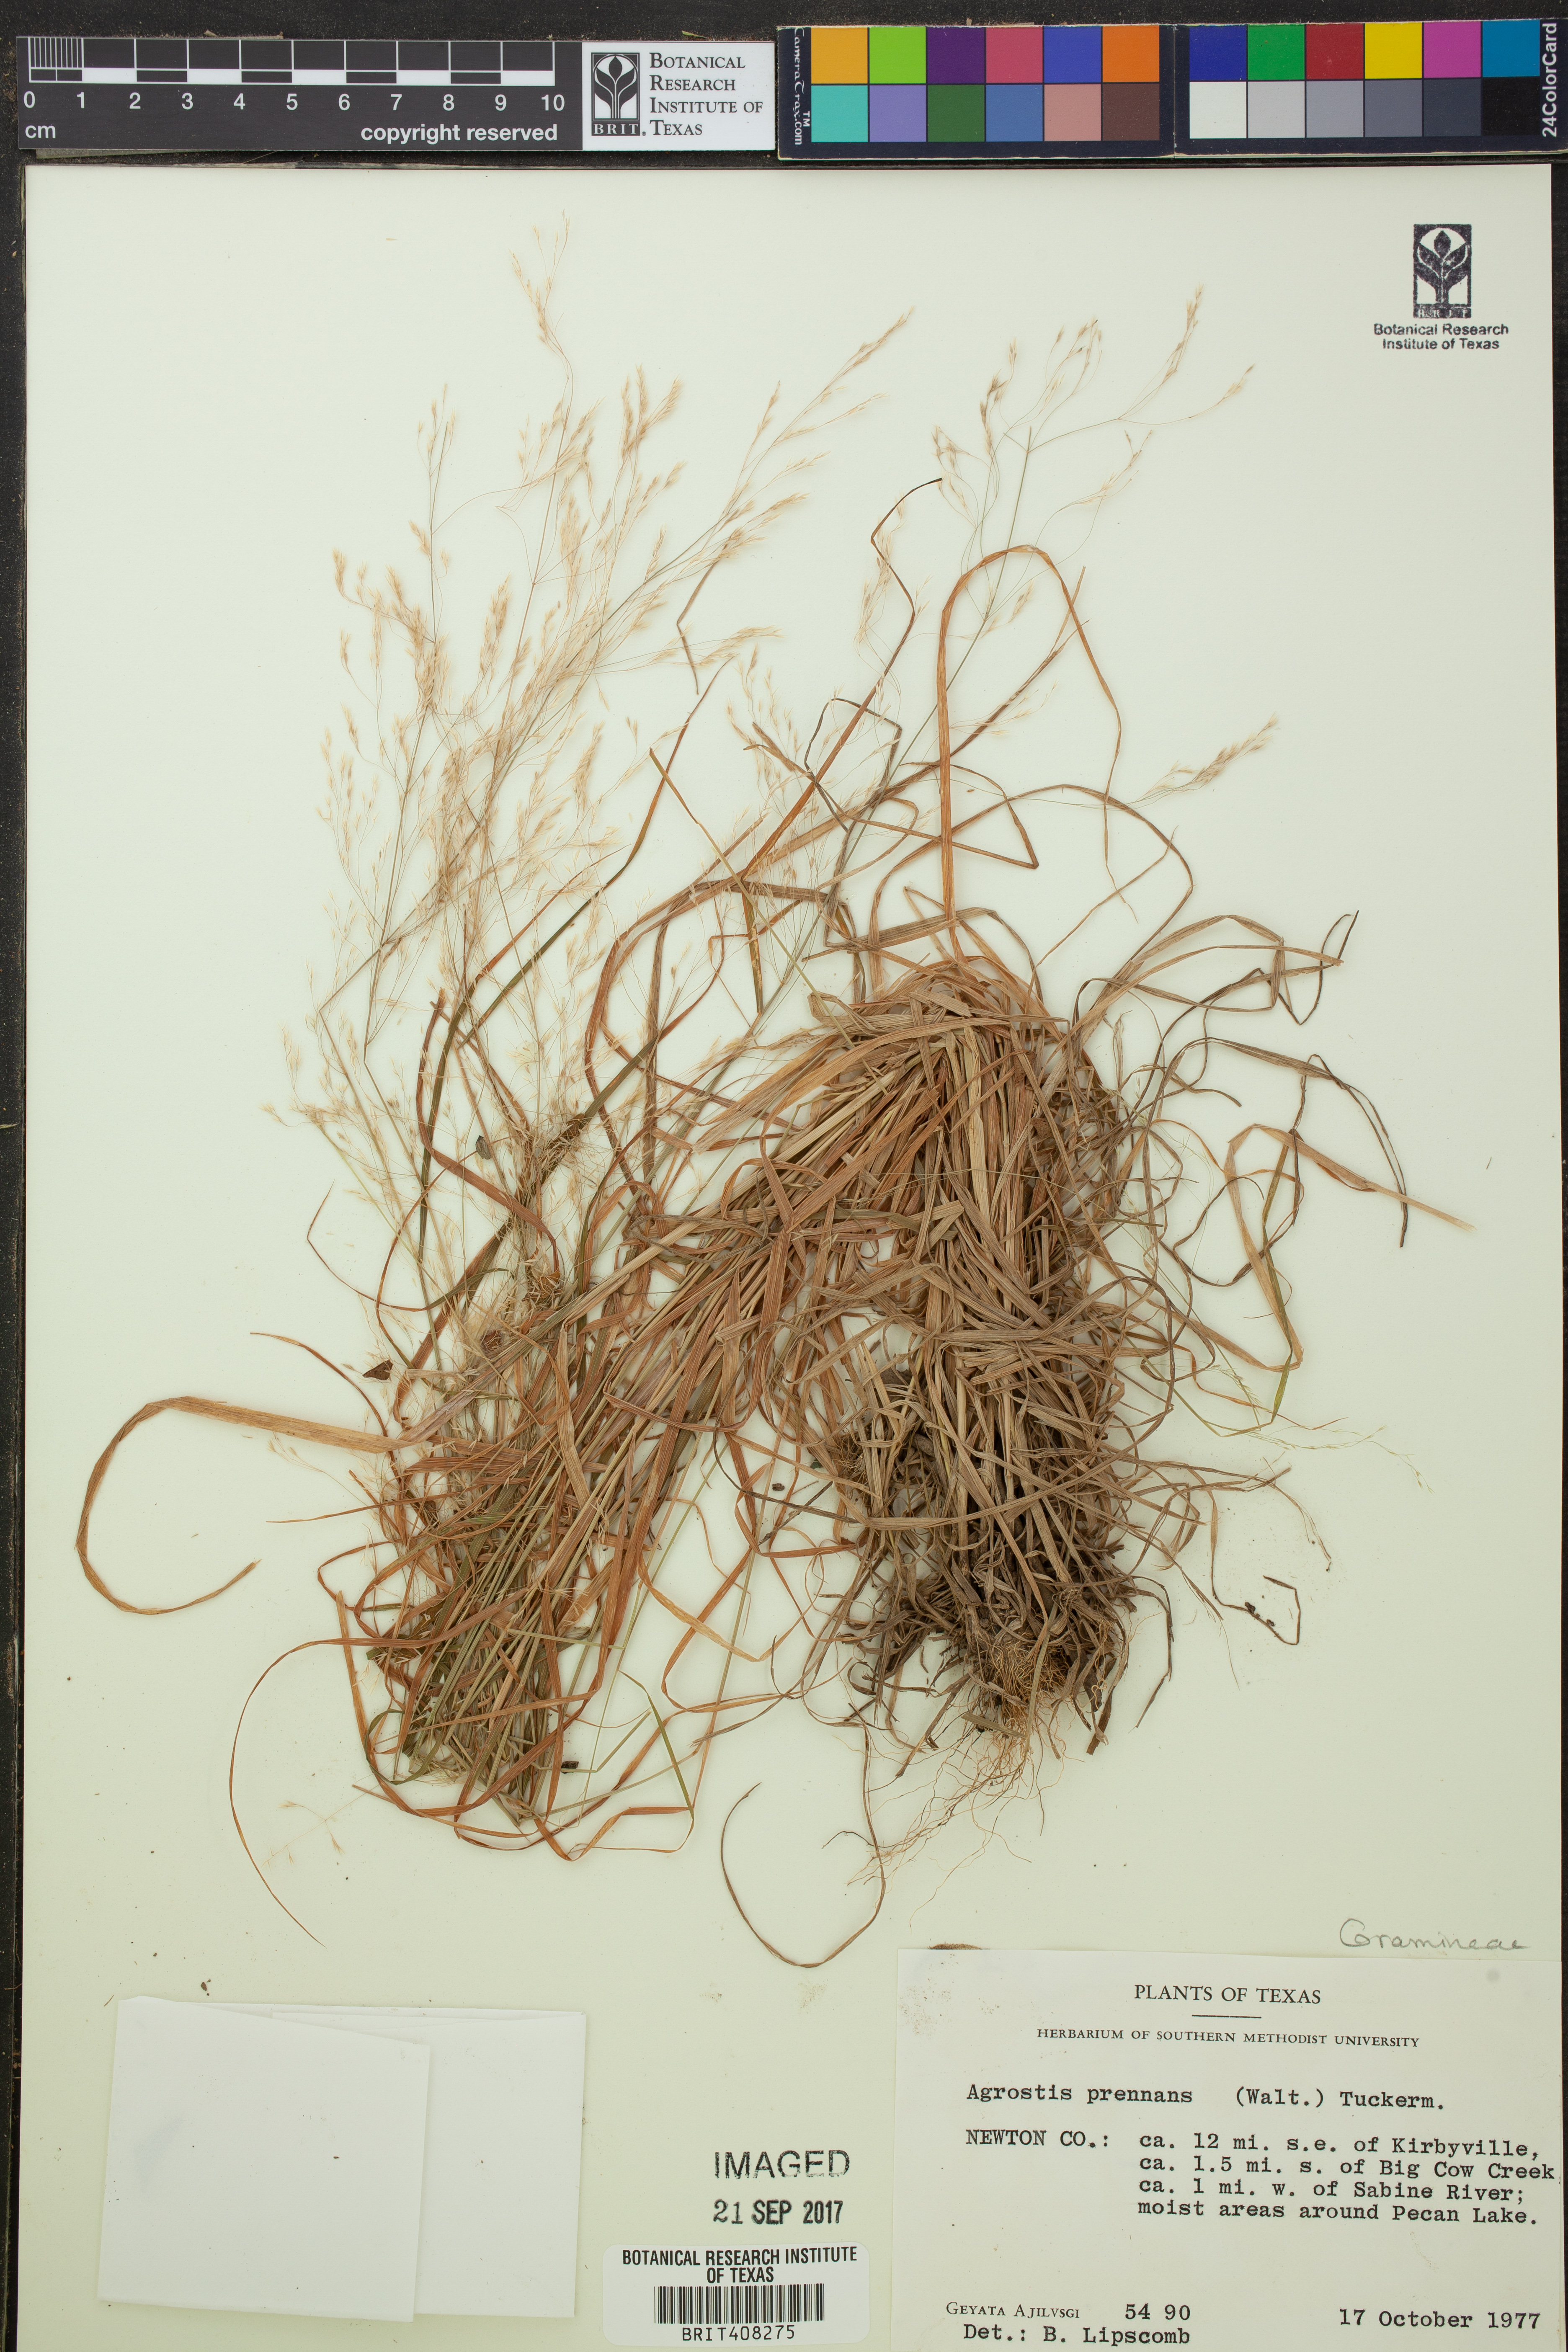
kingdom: Plantae
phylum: Tracheophyta
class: Liliopsida
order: Poales
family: Poaceae
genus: Agrostis
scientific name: Agrostis perennans
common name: Autumn bent
